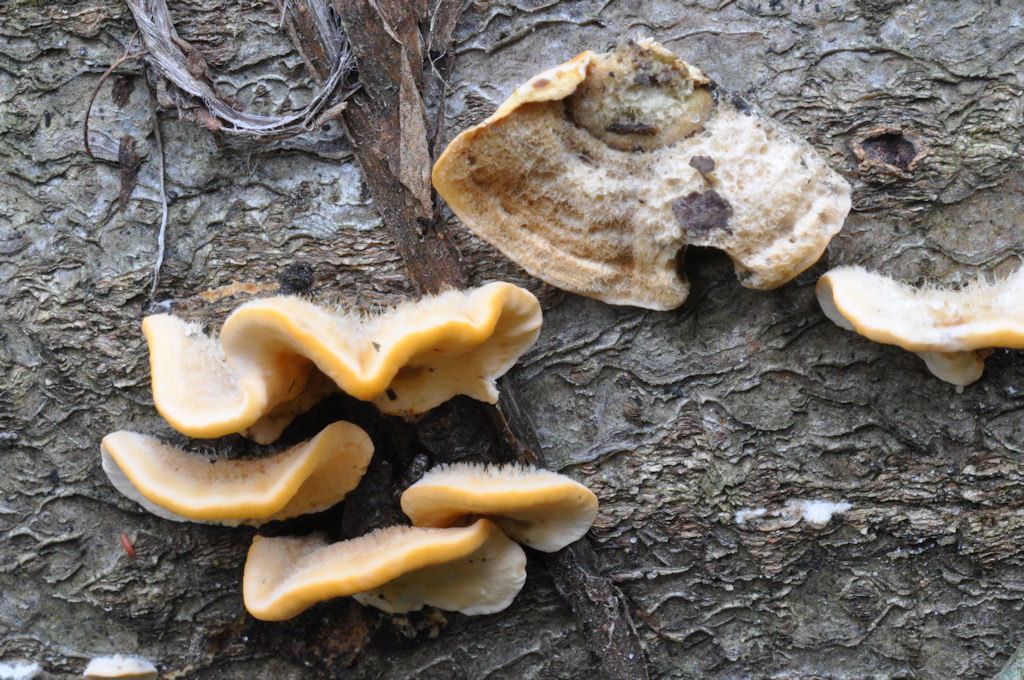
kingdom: Fungi
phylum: Basidiomycota
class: Agaricomycetes
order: Russulales
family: Stereaceae
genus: Stereum
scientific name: Stereum hirsutum
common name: håret lædersvamp
